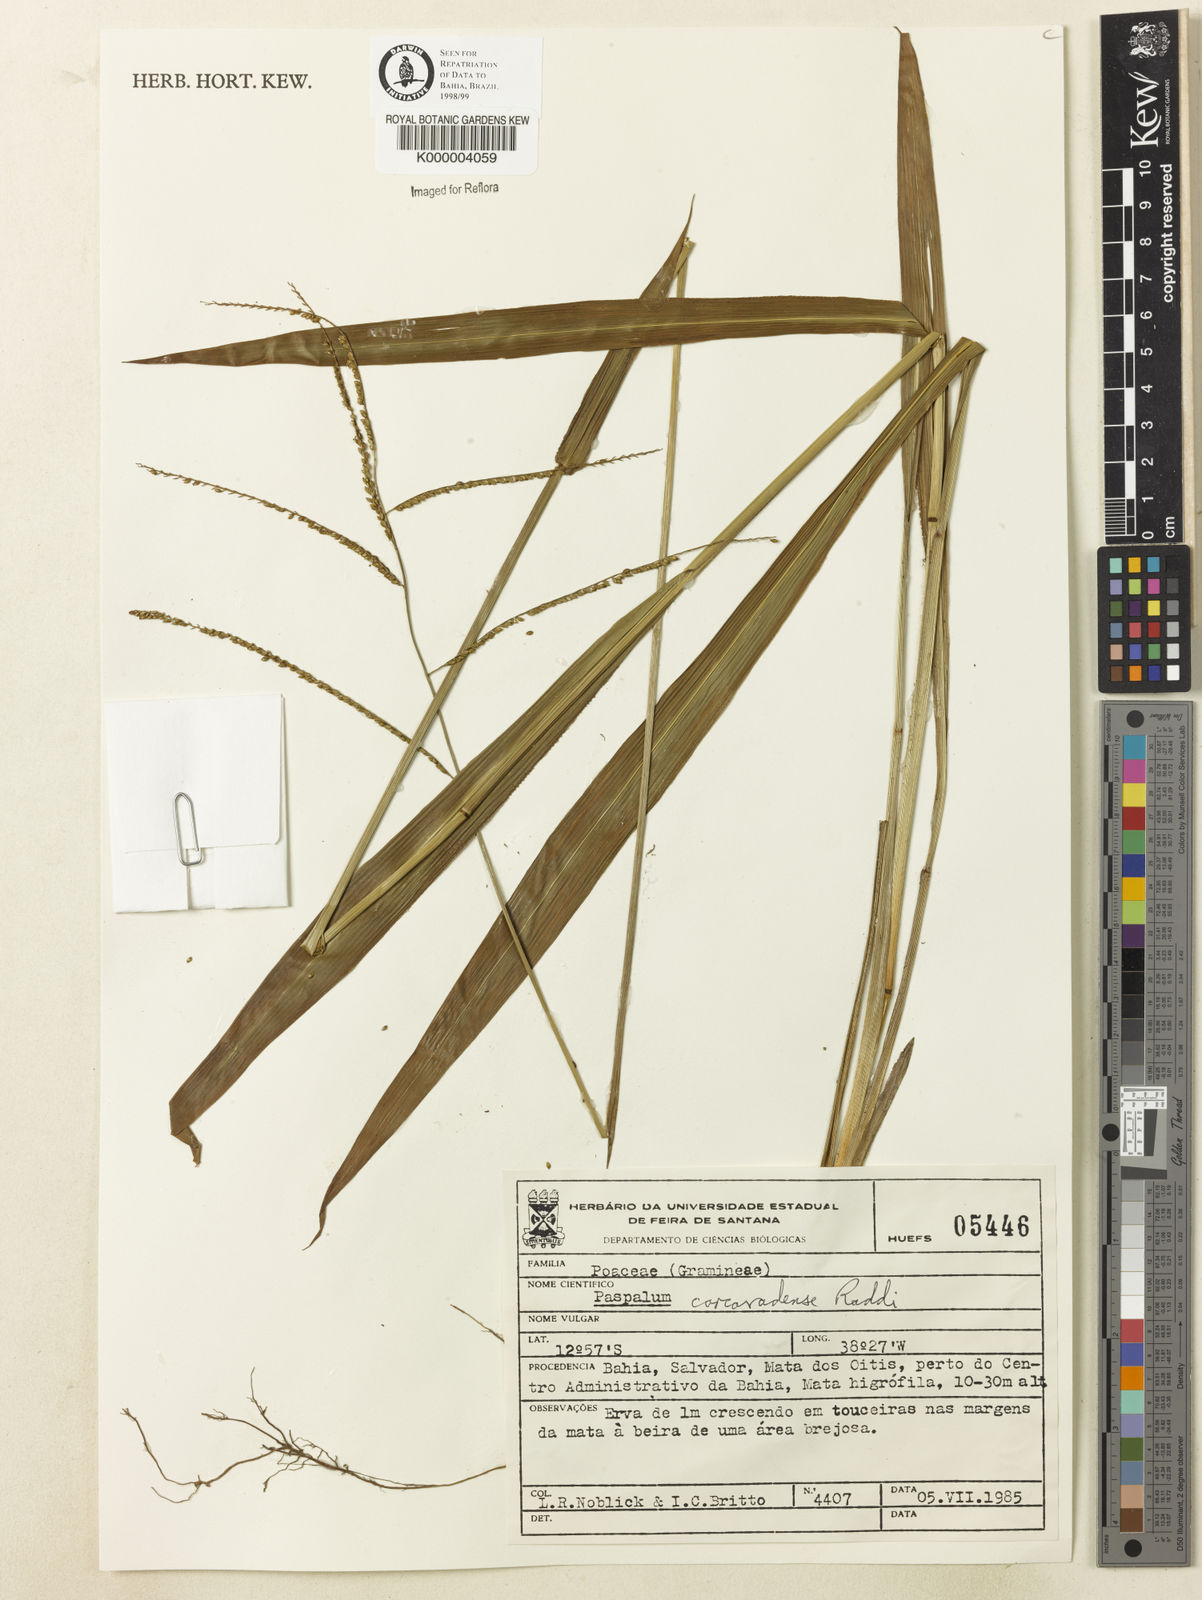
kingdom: Plantae
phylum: Tracheophyta
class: Liliopsida
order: Poales
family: Poaceae
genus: Paspalum
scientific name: Paspalum corcovadense
